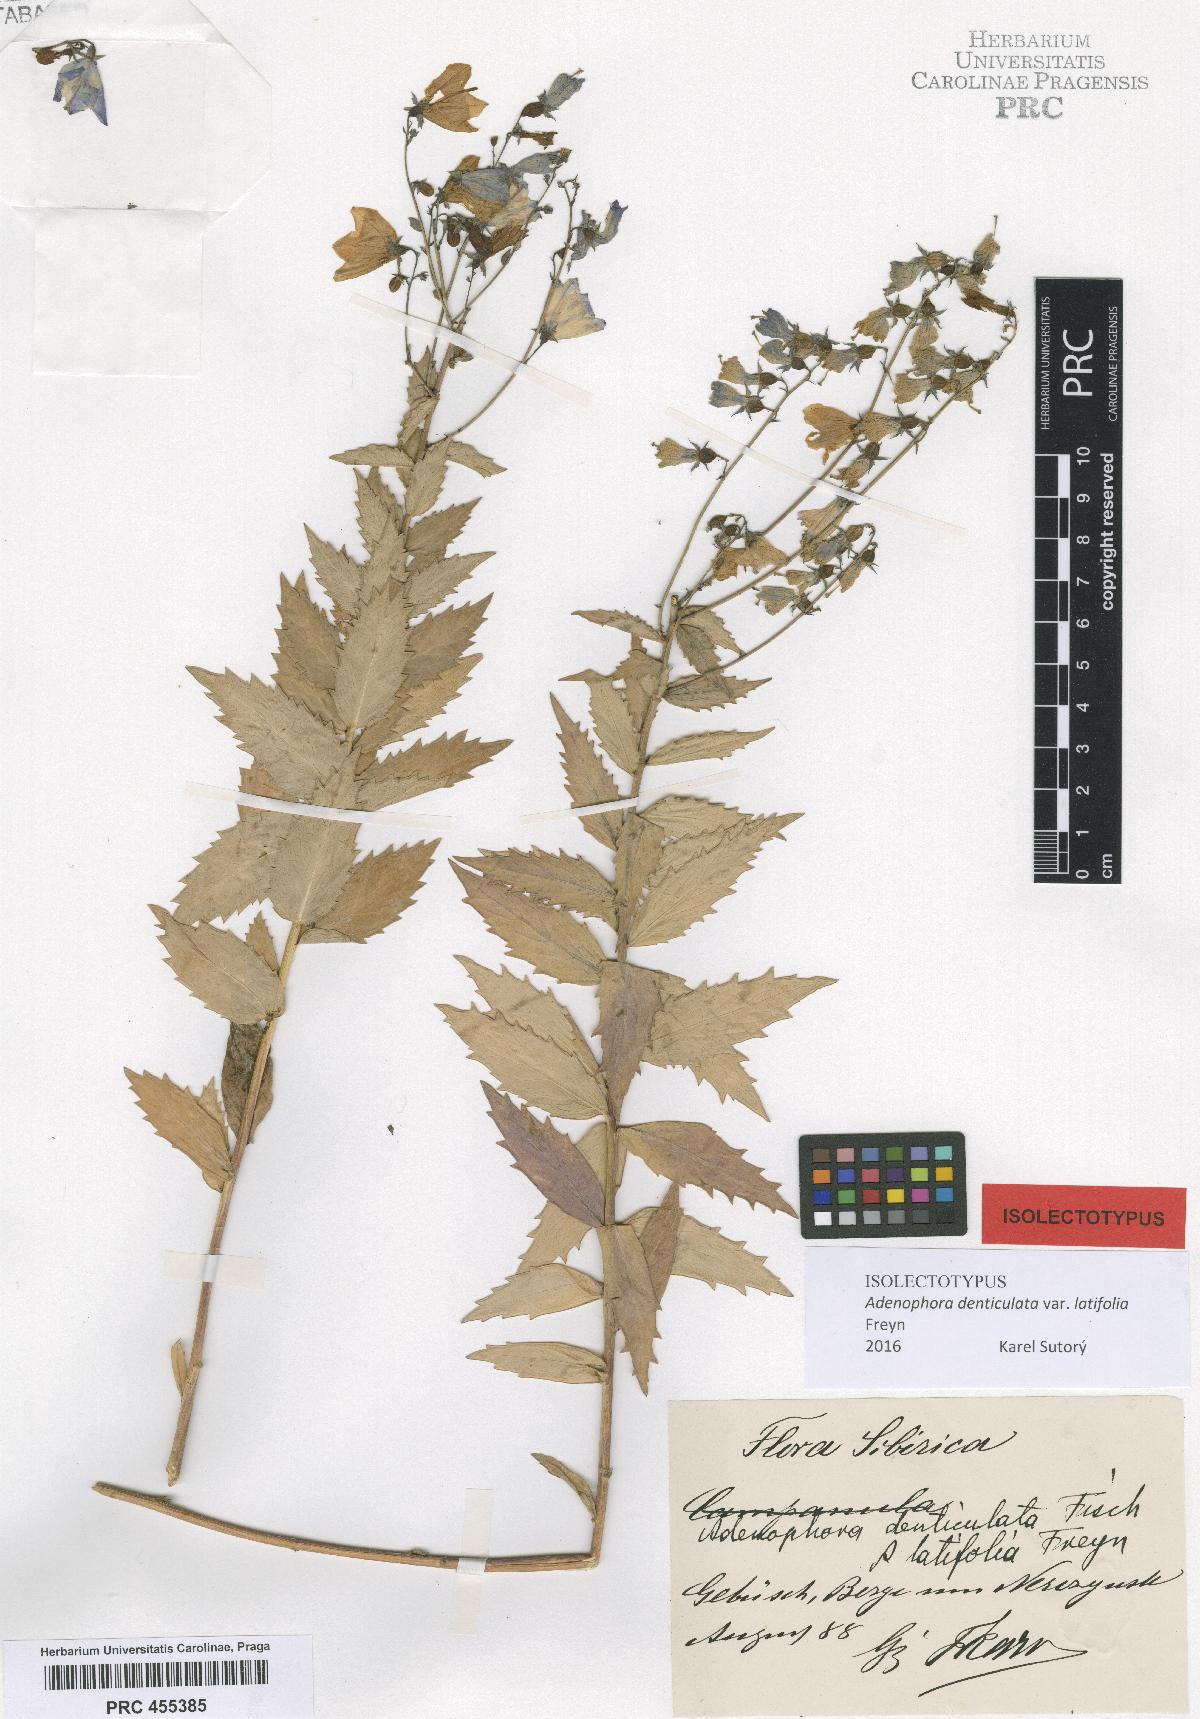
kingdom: Plantae
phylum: Tracheophyta
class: Magnoliopsida
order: Asterales
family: Campanulaceae
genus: Adenophora
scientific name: Adenophora tricuspidata
